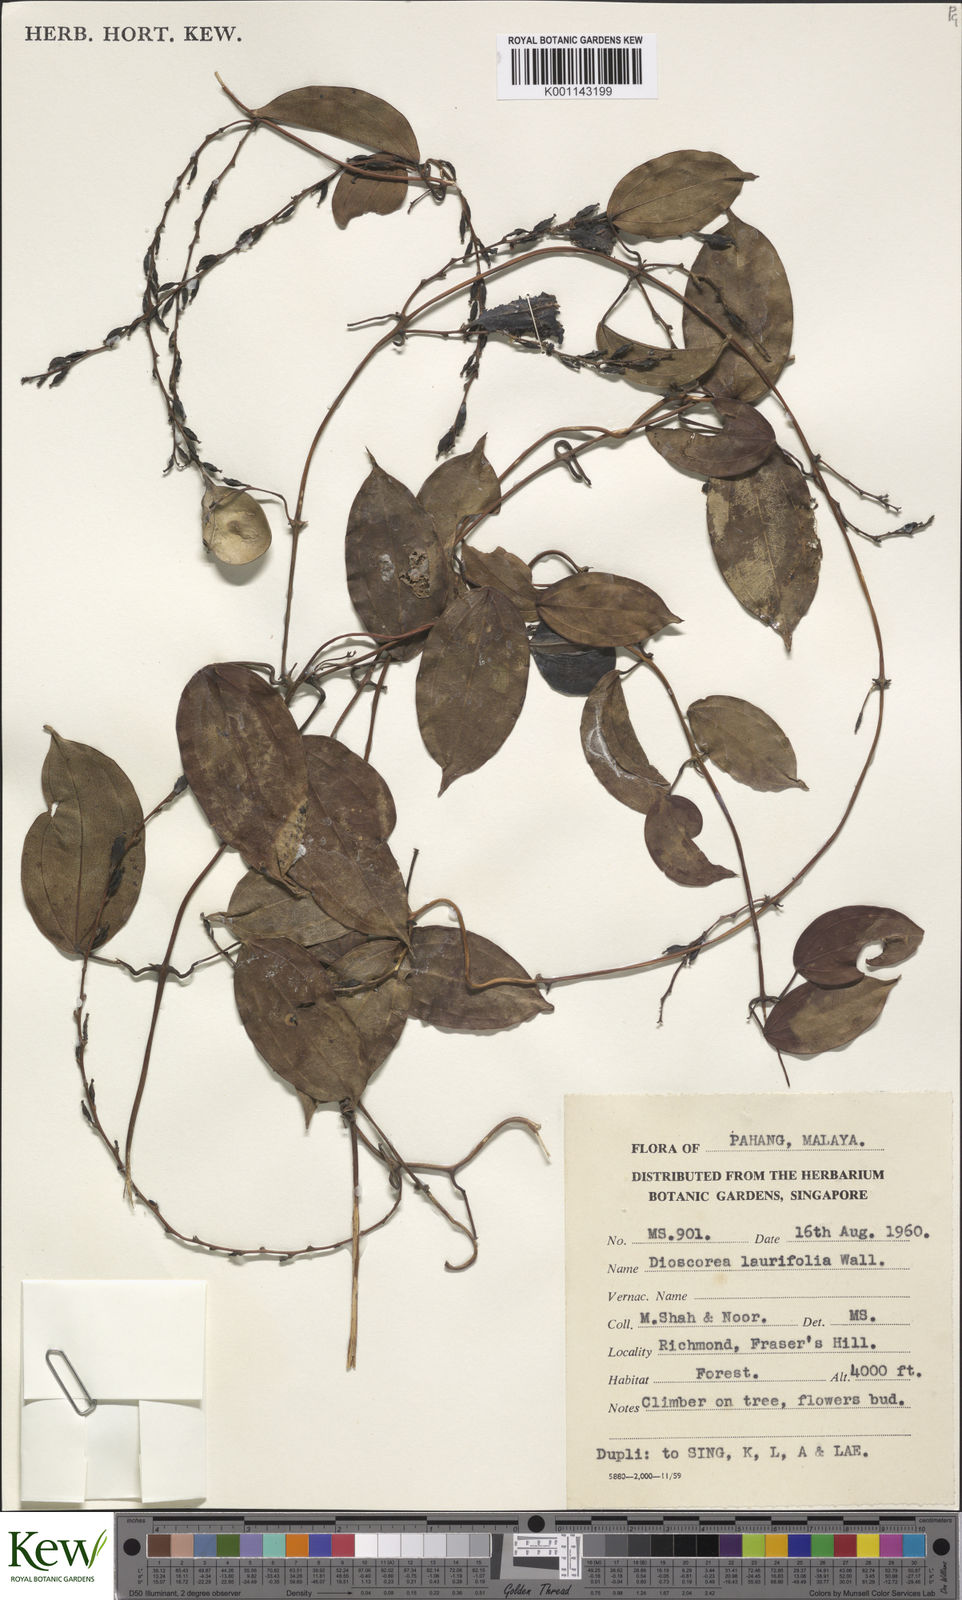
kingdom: Plantae
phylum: Tracheophyta
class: Liliopsida
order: Dioscoreales
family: Dioscoreaceae
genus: Dioscorea
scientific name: Dioscorea laurifolia
